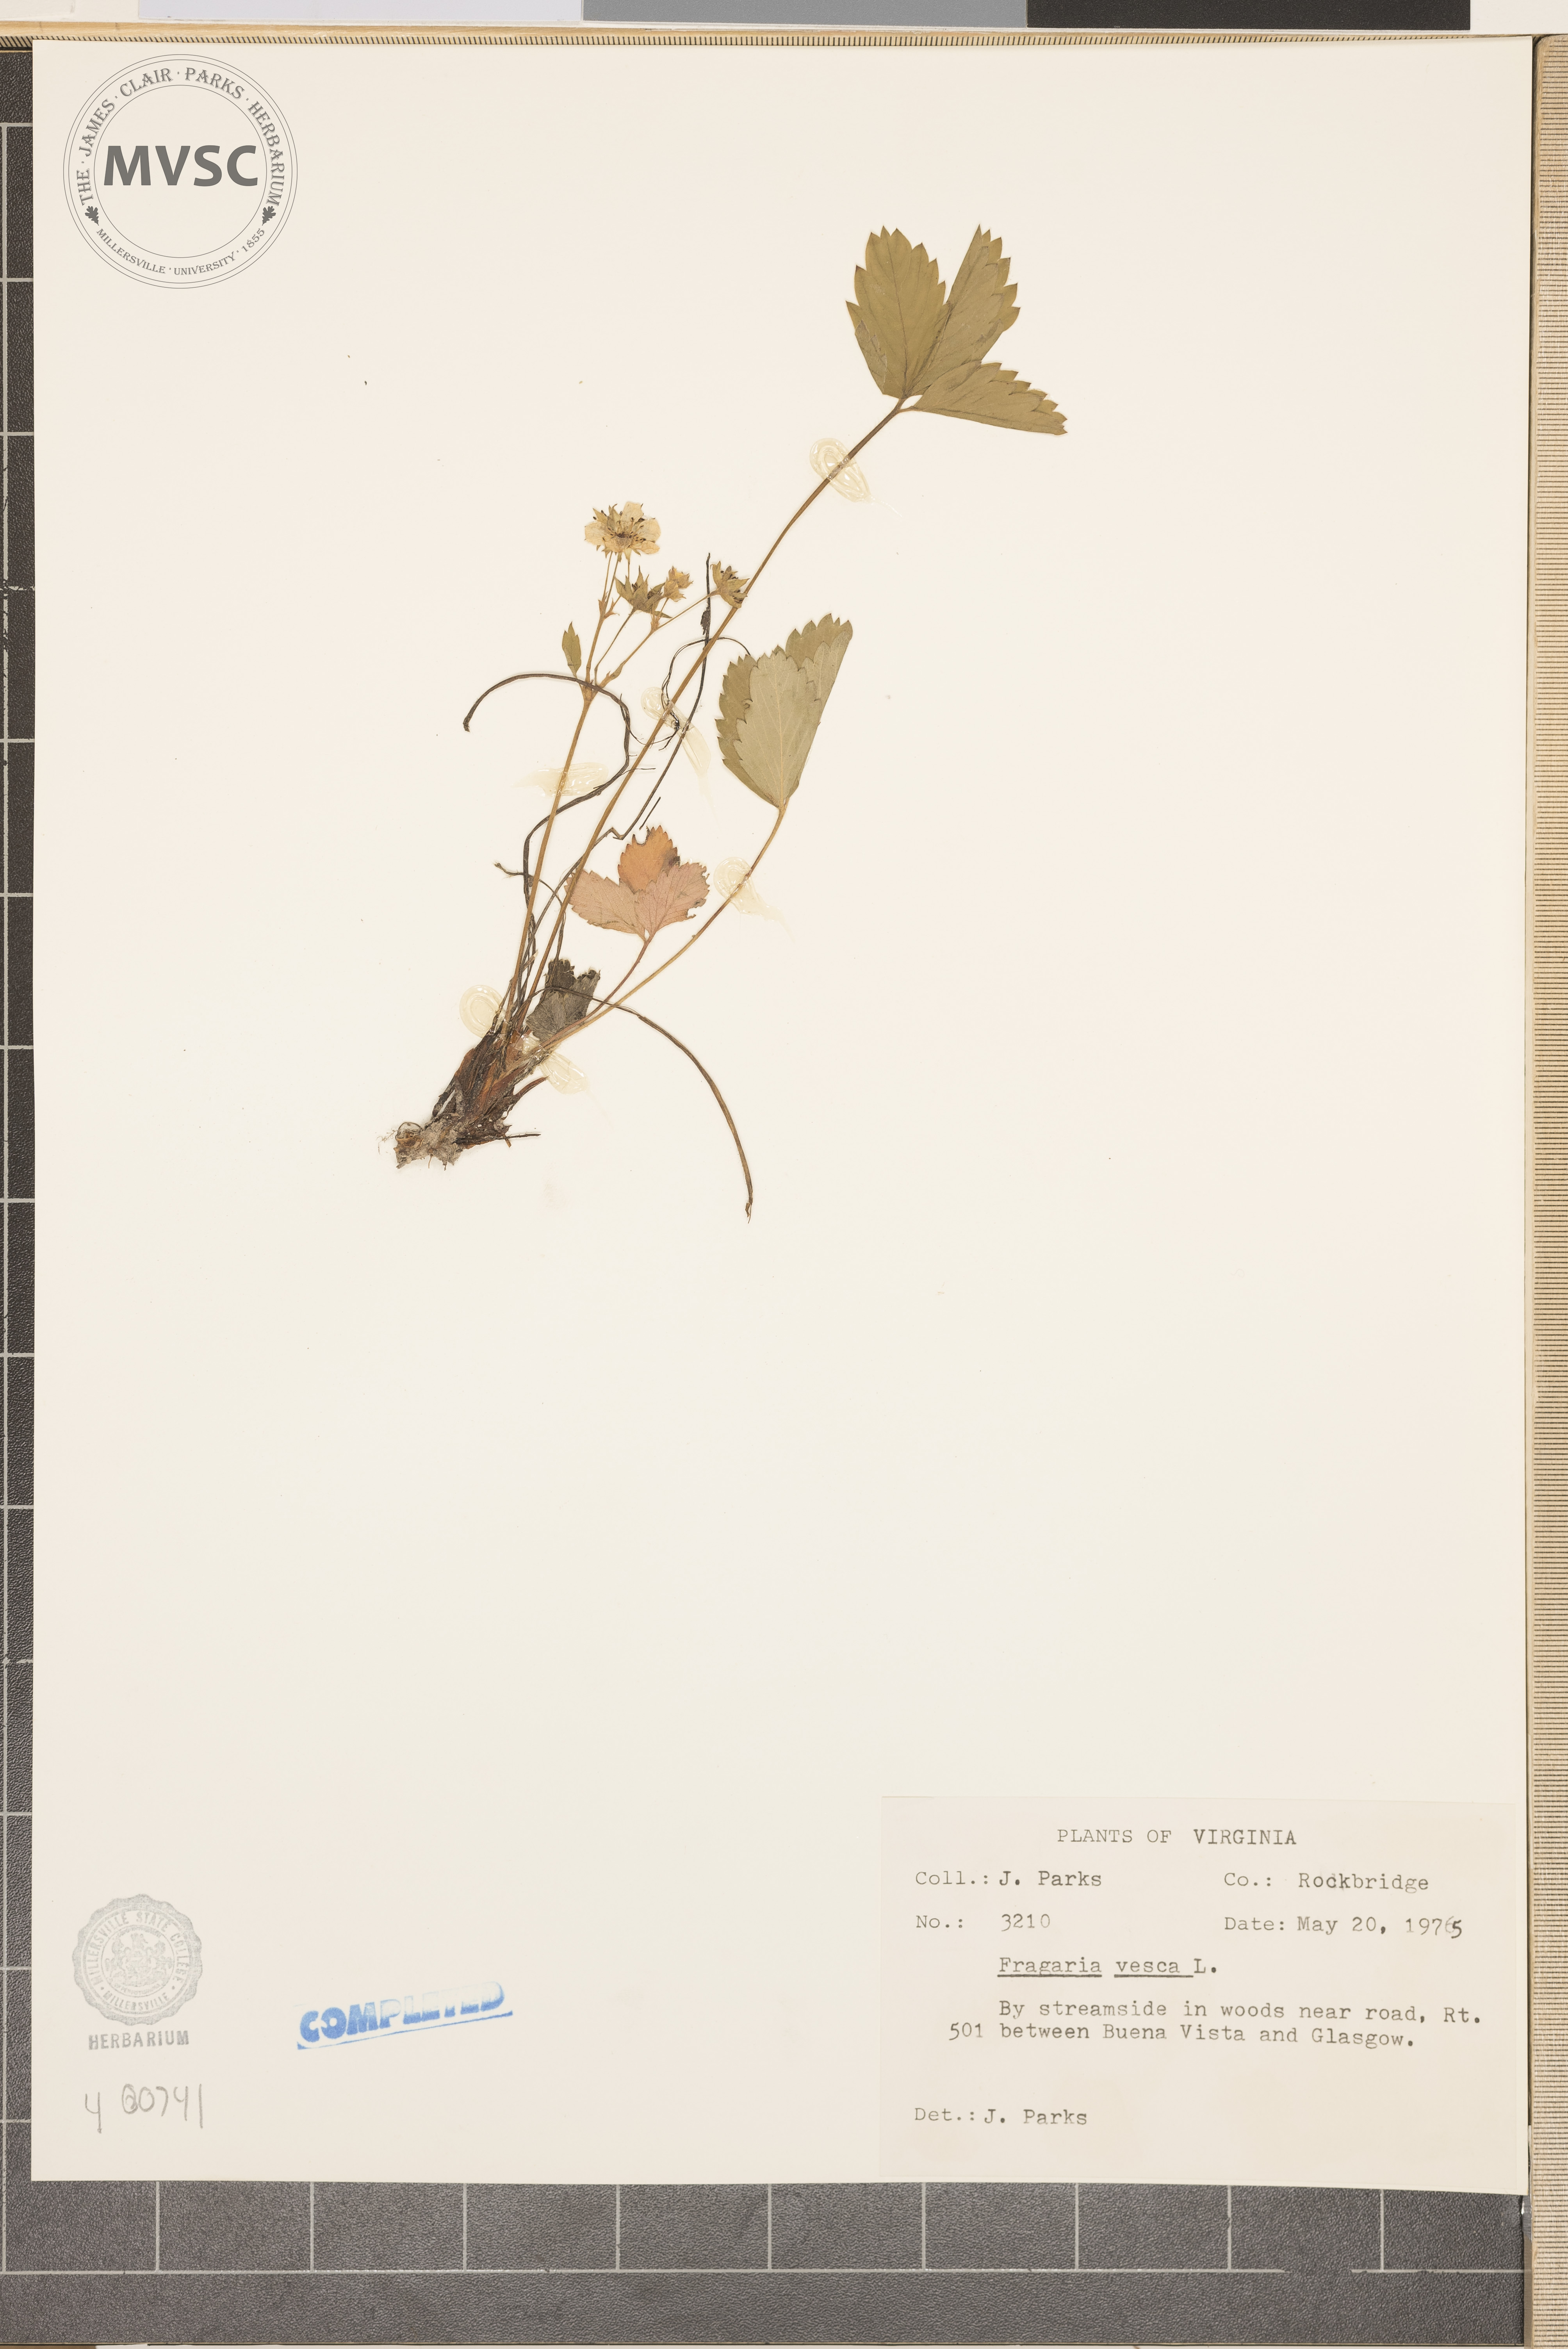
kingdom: Plantae
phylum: Tracheophyta
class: Magnoliopsida
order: Rosales
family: Rosaceae
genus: Fragaria
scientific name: Fragaria vesca
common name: Wild strawberry
